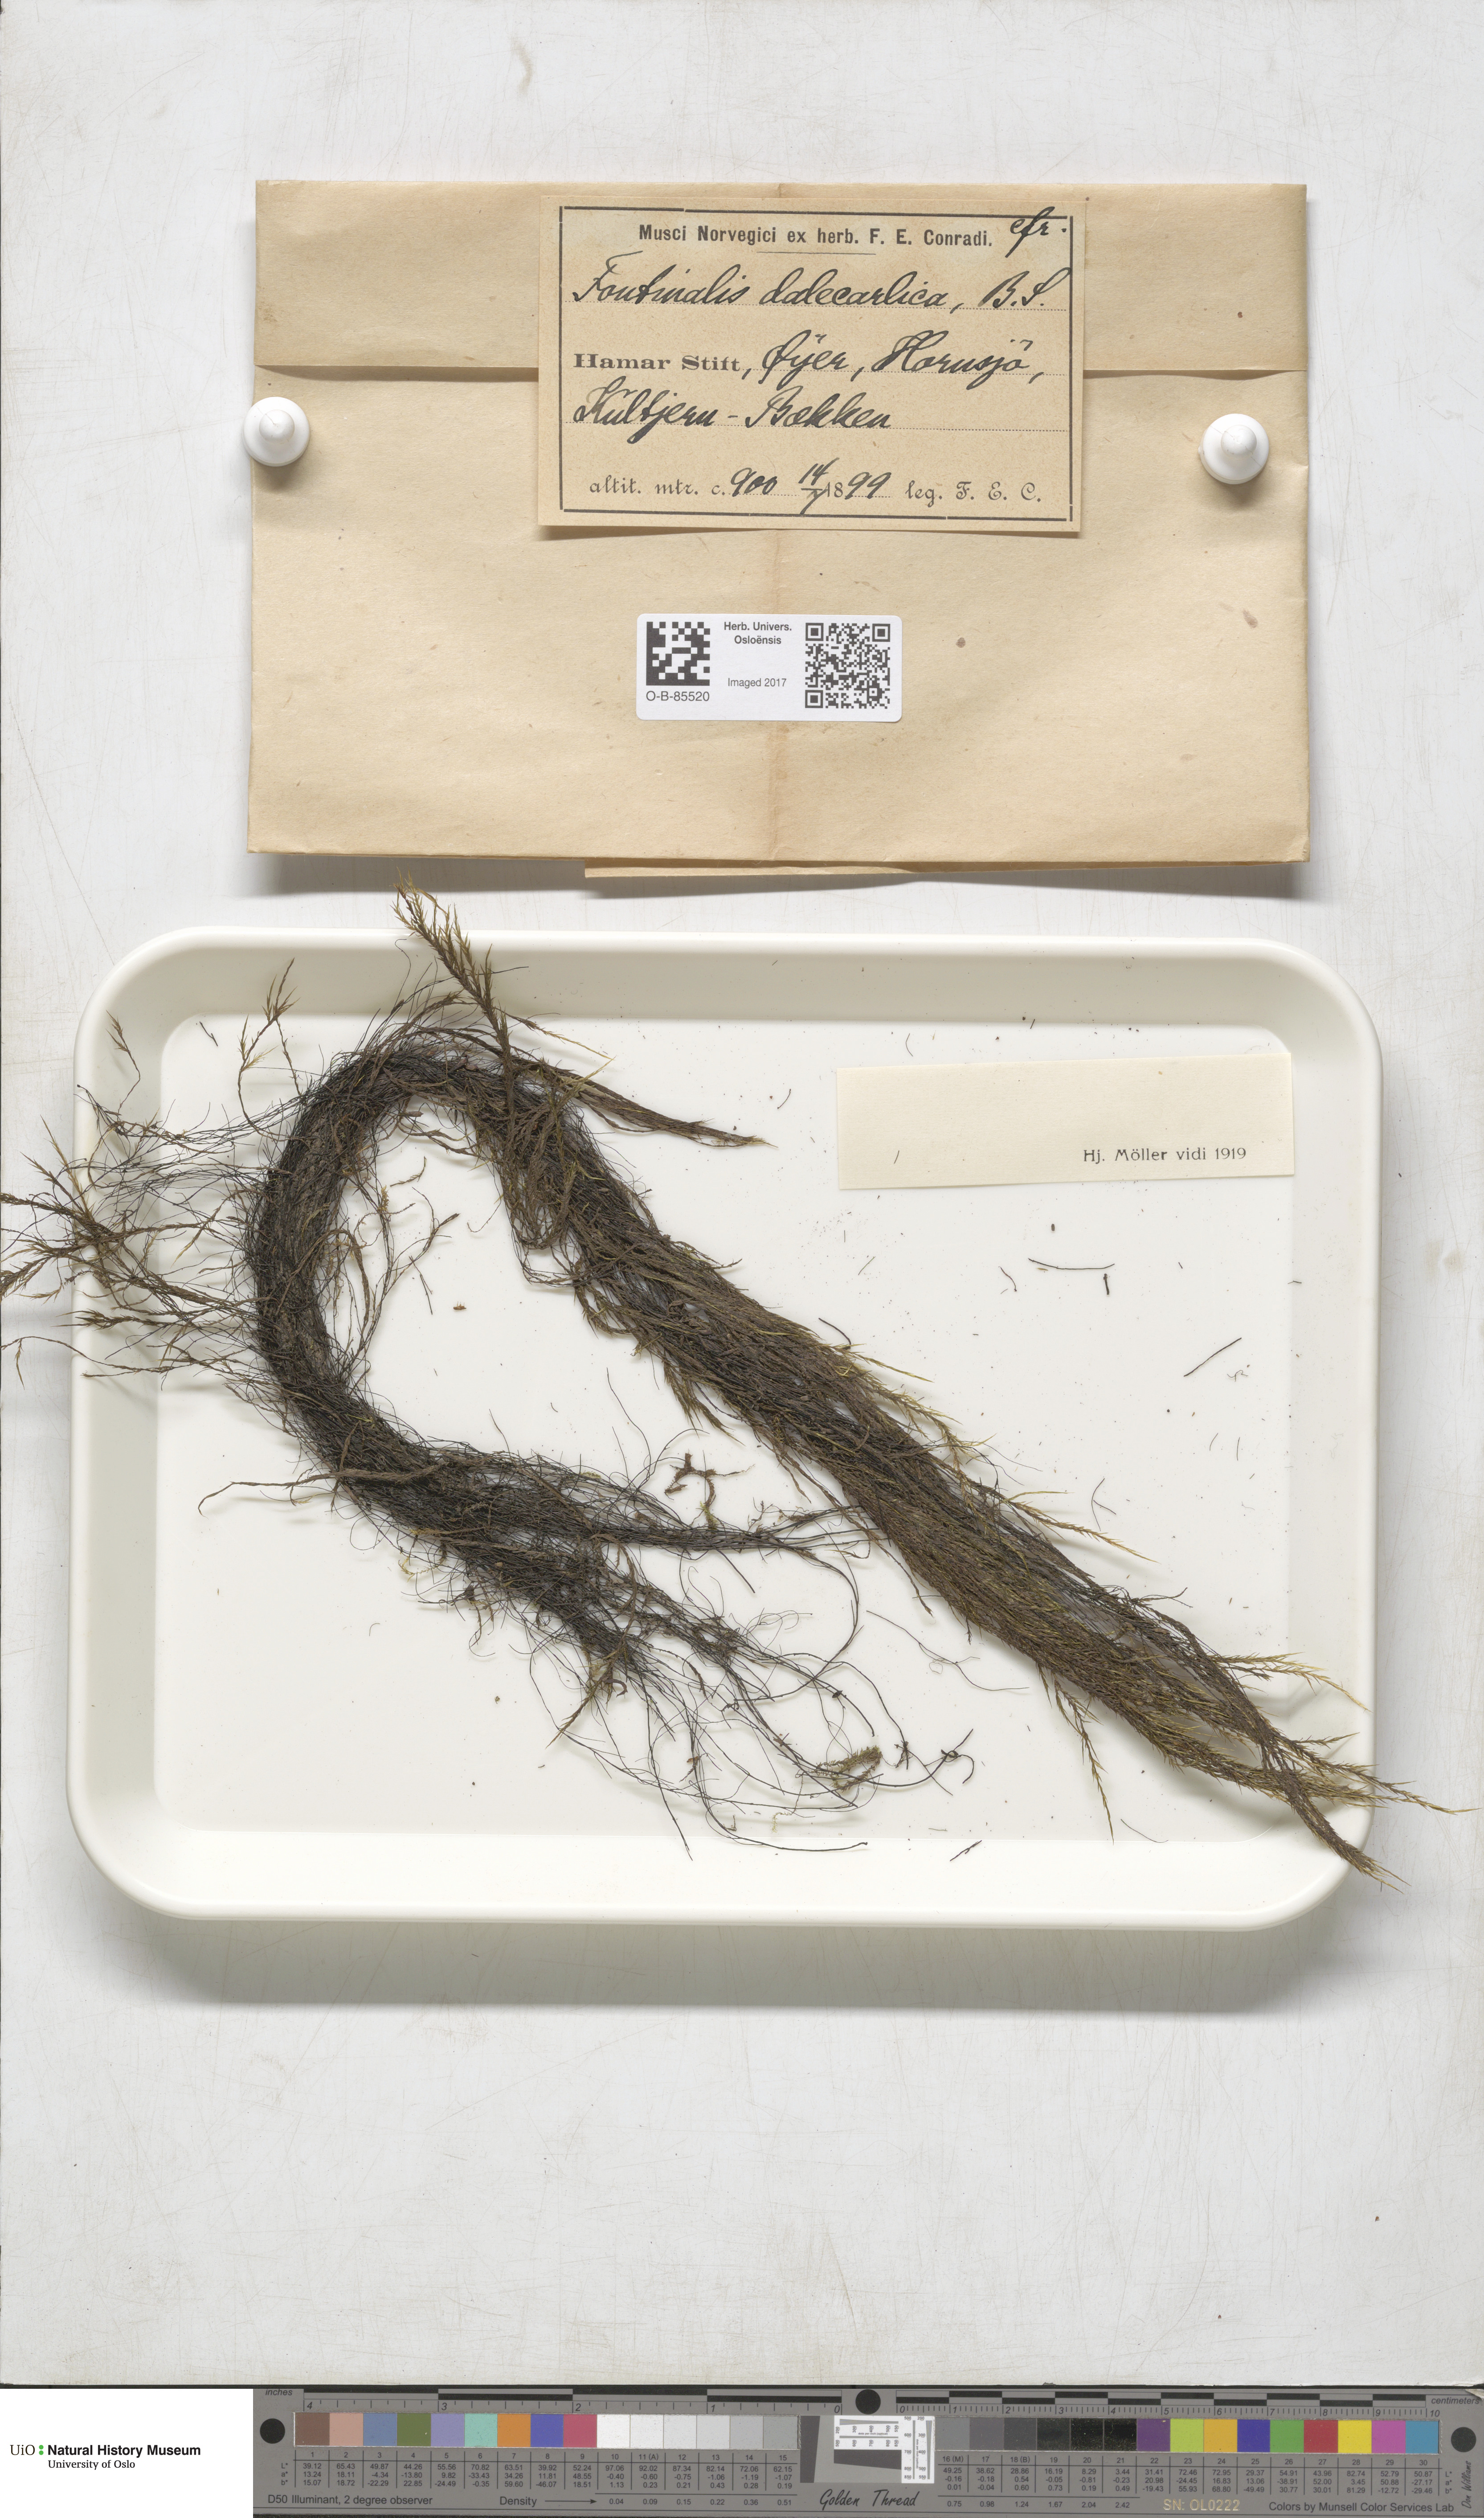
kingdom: Plantae
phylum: Bryophyta
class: Bryopsida
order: Hypnales
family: Fontinalaceae
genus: Fontinalis
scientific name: Fontinalis dalecarlica
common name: Slender water moss
